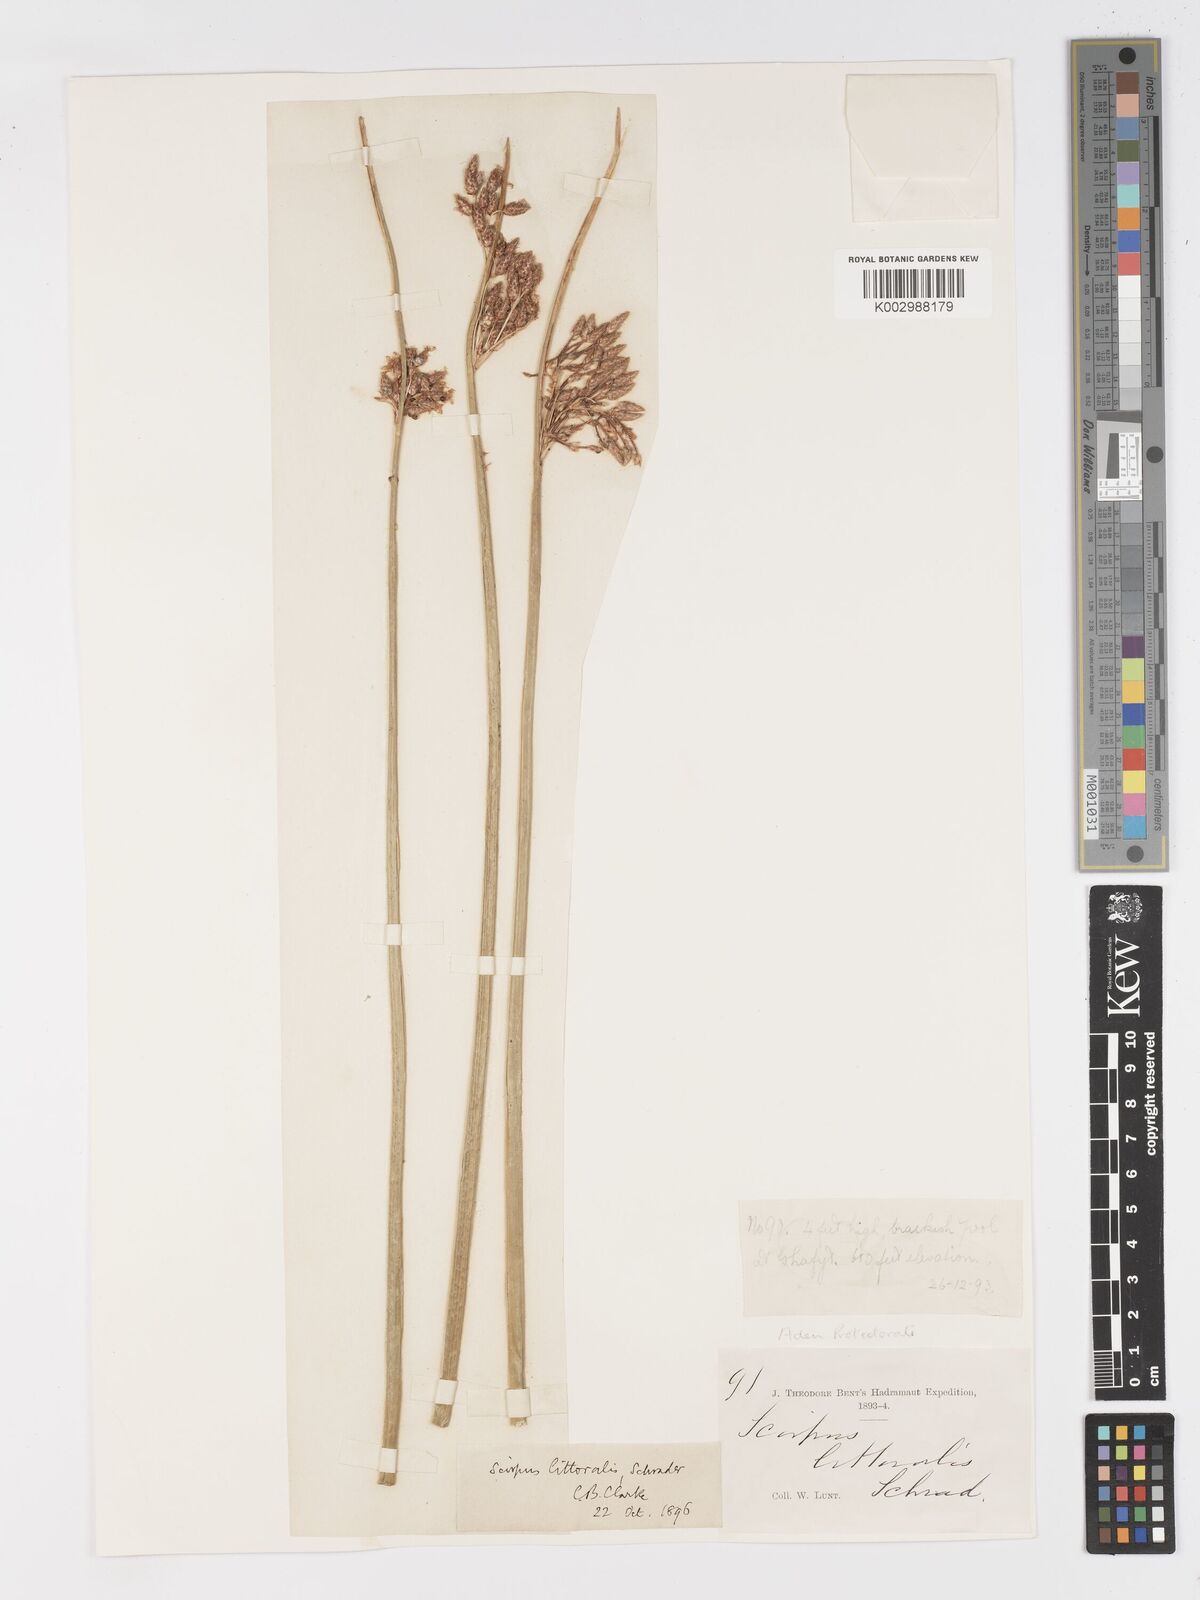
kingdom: Plantae
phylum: Tracheophyta
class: Liliopsida
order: Poales
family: Cyperaceae
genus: Schoenoplectus
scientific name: Schoenoplectus litoralis
